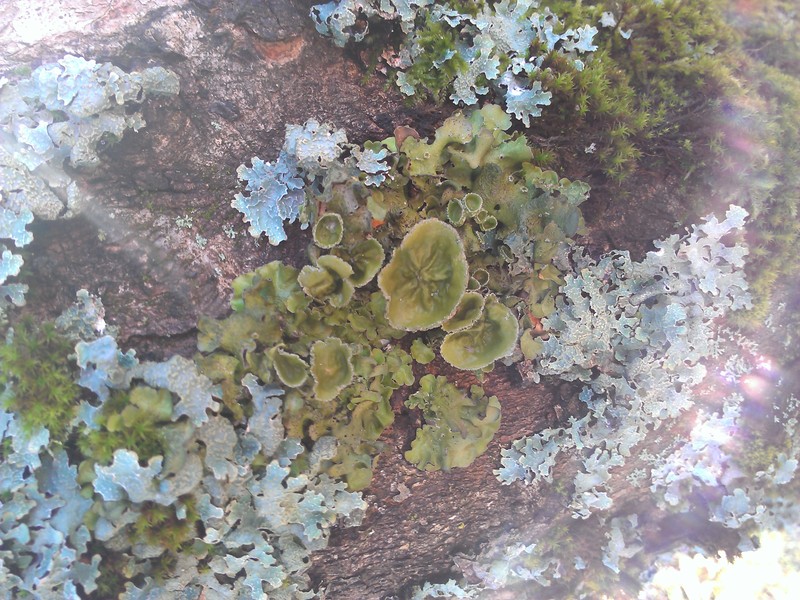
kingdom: Fungi
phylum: Ascomycota
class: Lecanoromycetes
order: Lecanorales
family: Parmeliaceae
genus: Pleurosticta
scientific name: Pleurosticta acetabulum
